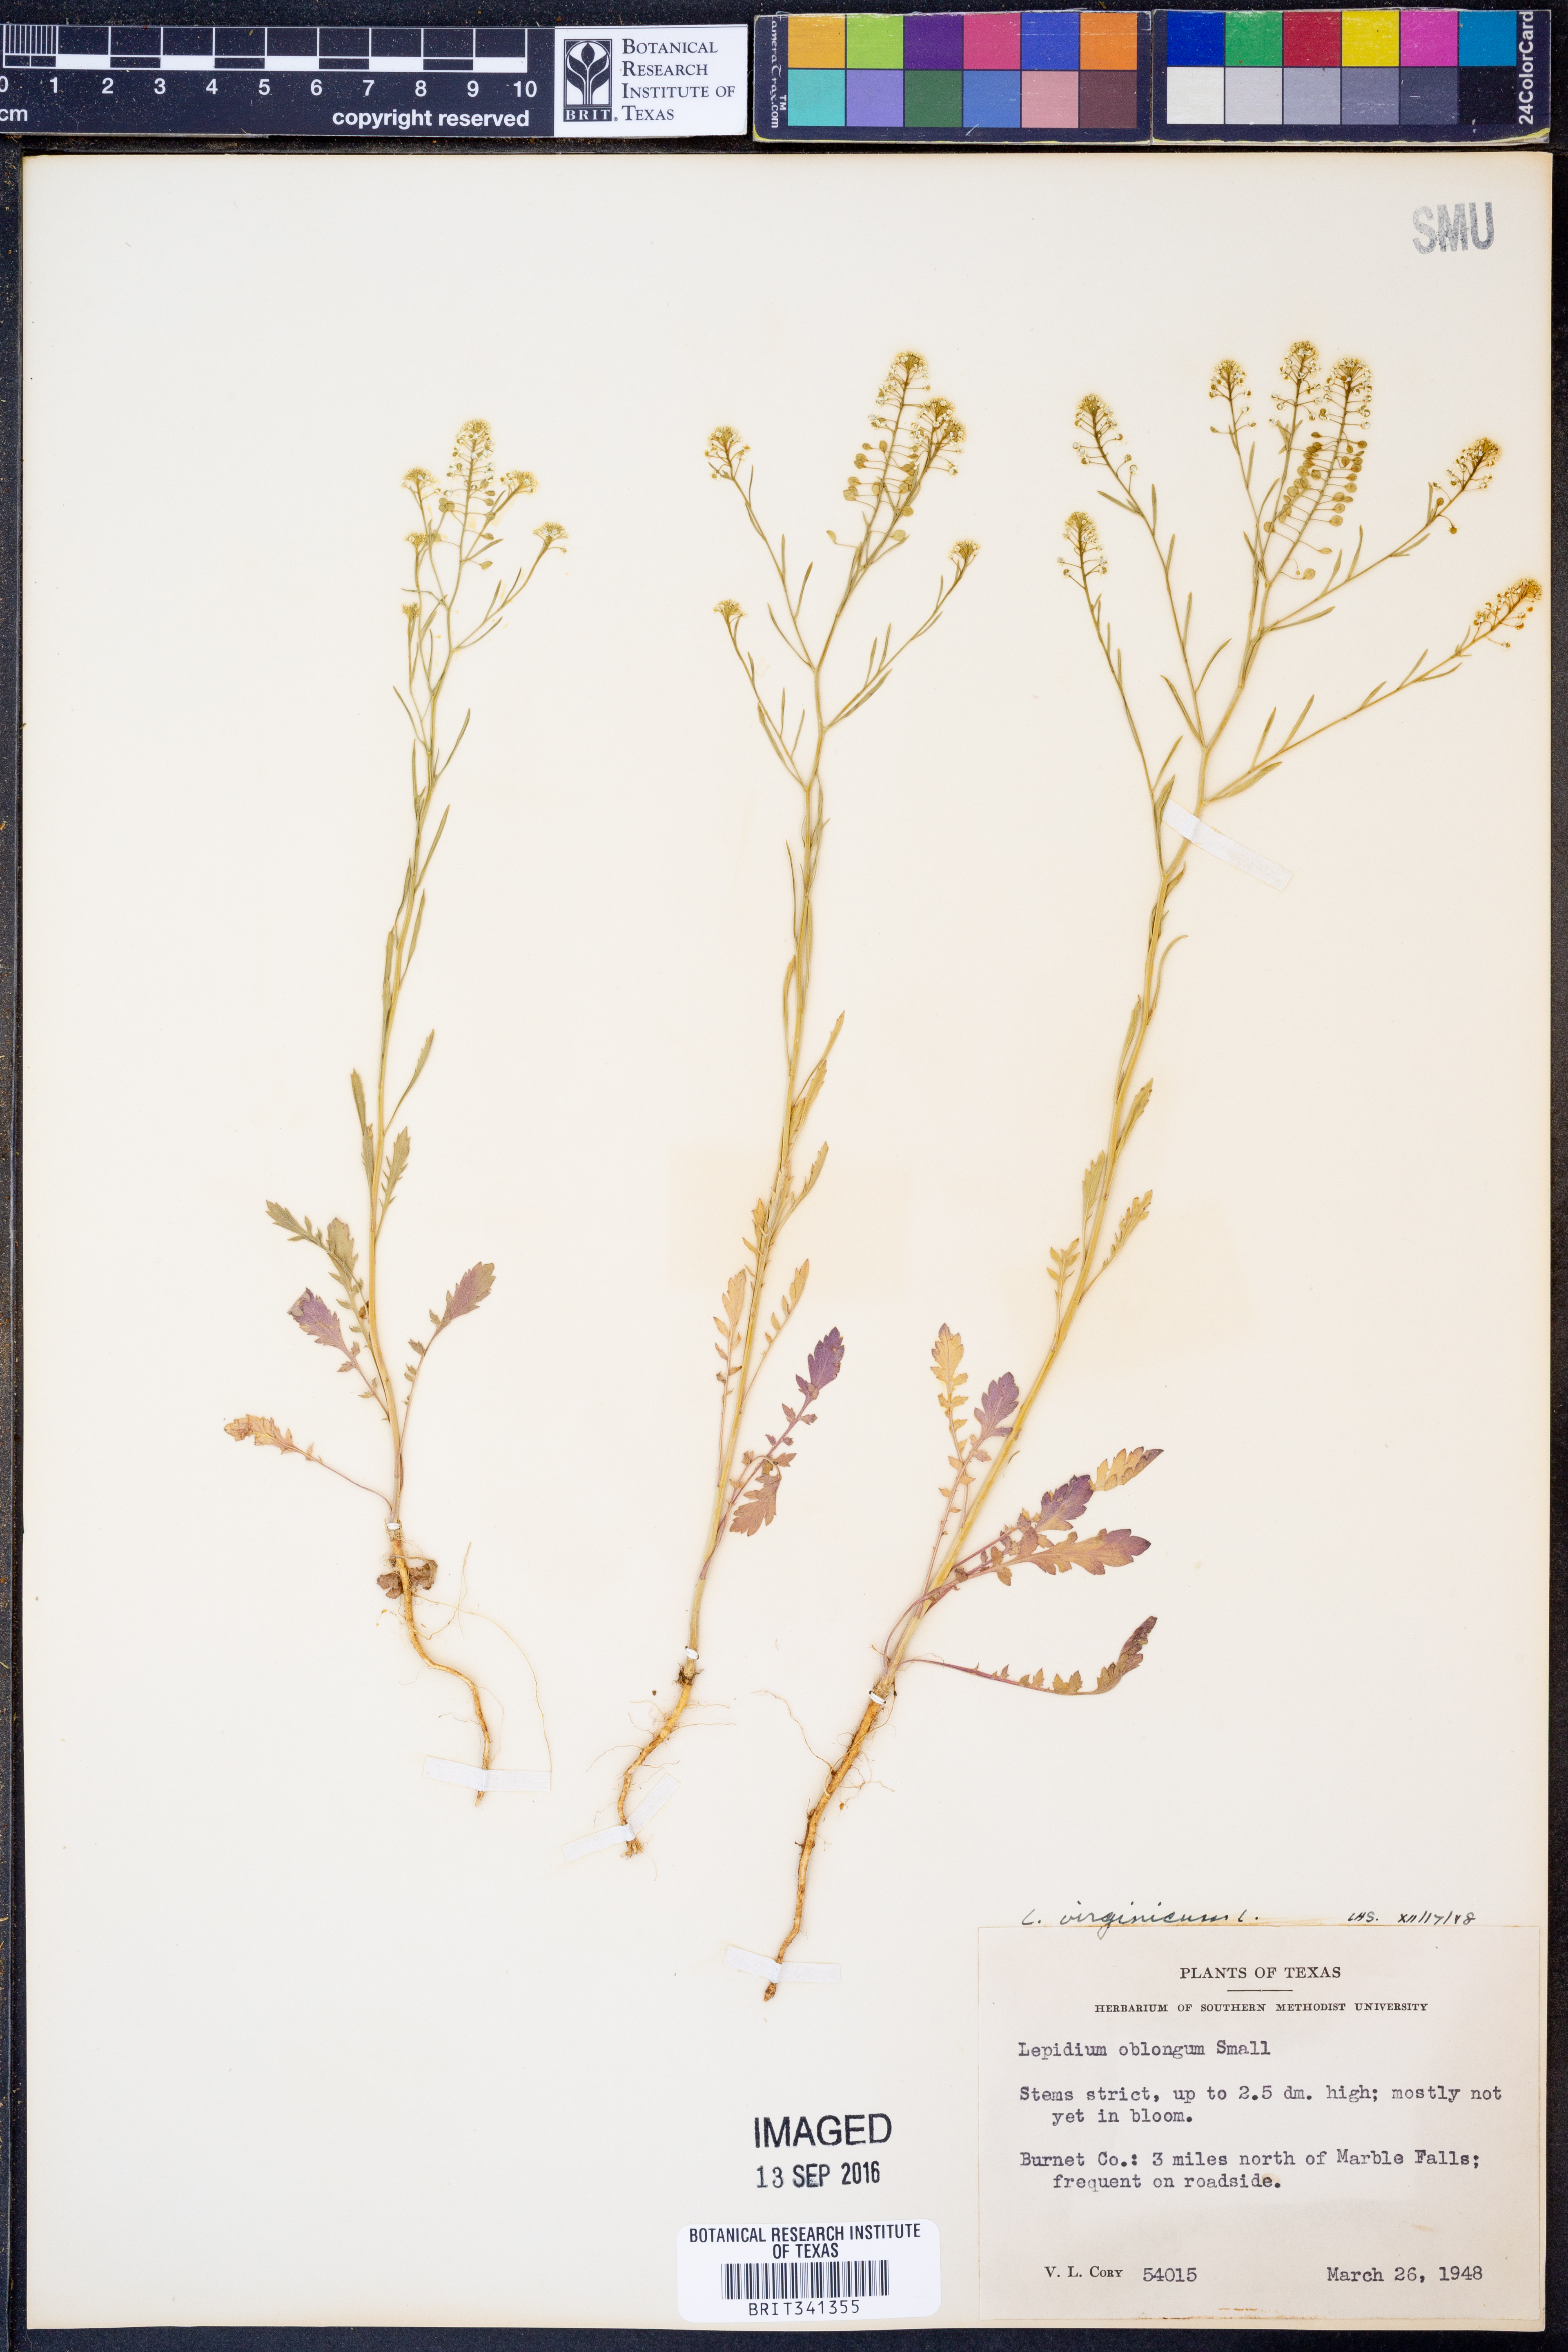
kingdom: Plantae
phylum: Tracheophyta
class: Magnoliopsida
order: Brassicales
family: Brassicaceae
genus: Lepidium
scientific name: Lepidium virginicum
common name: Least pepperwort
